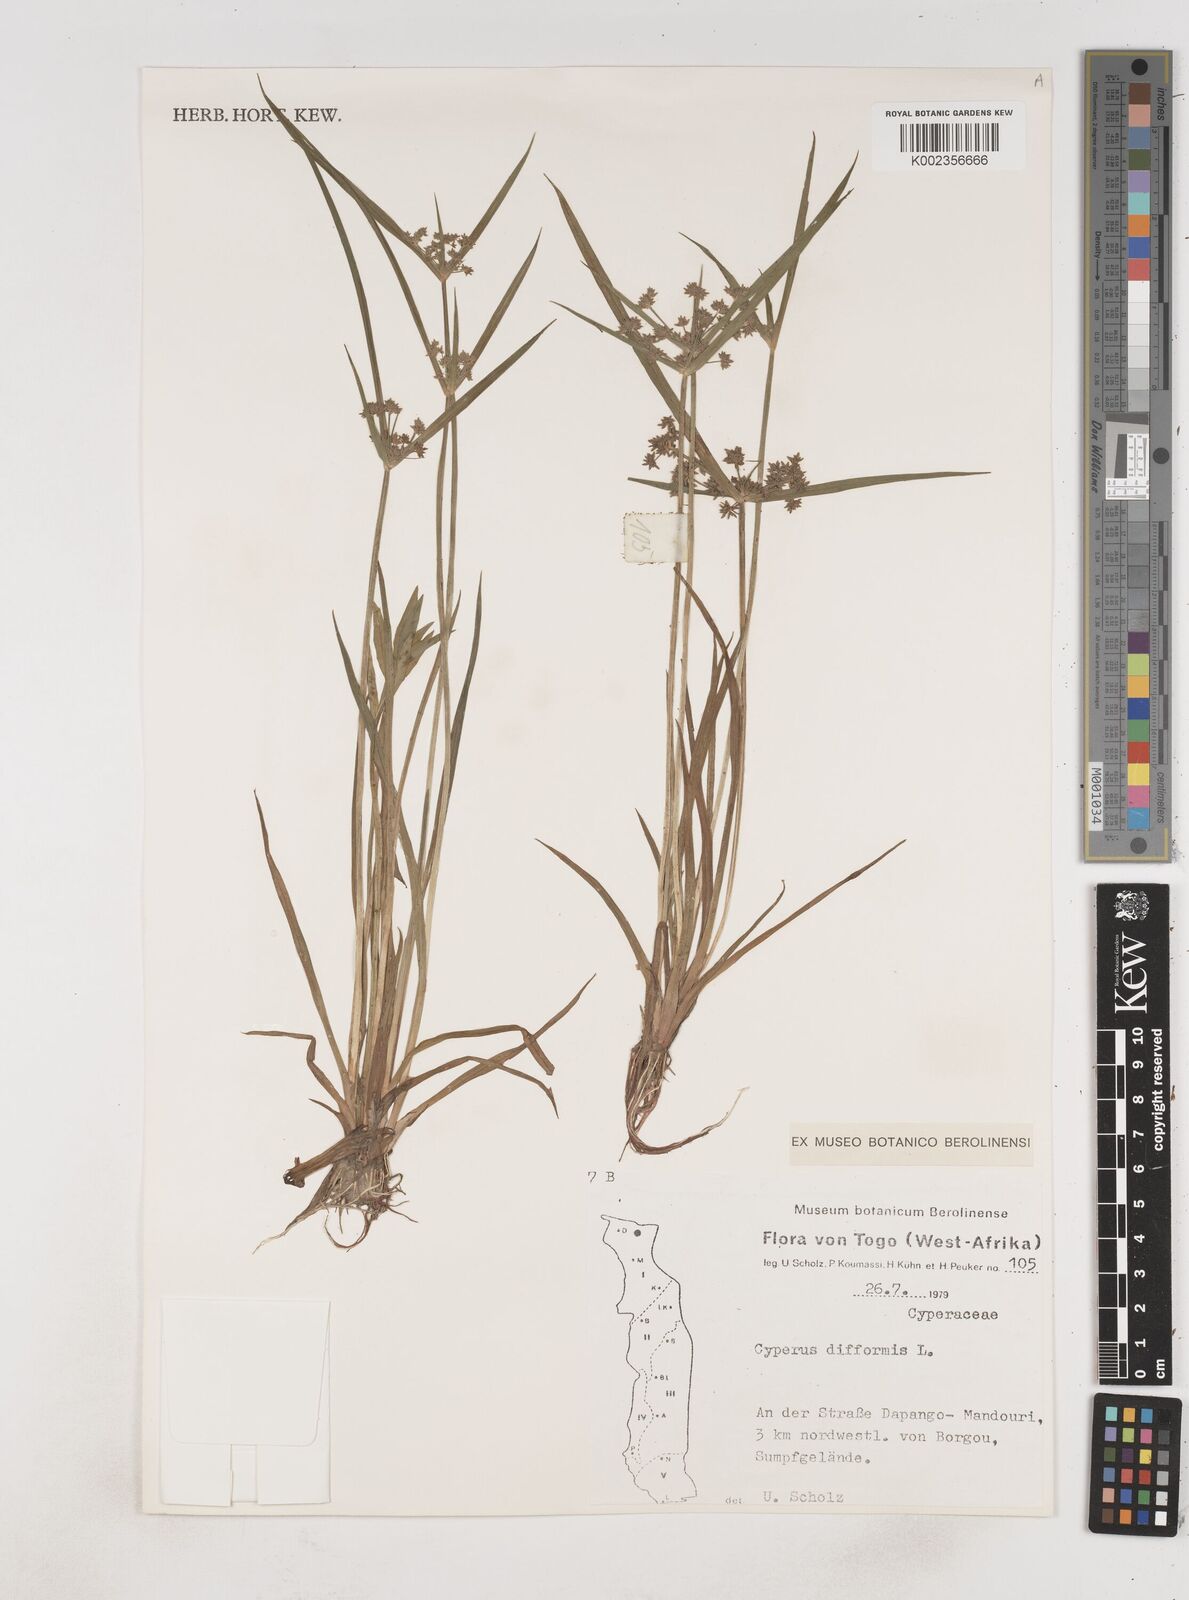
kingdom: Plantae
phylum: Tracheophyta
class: Liliopsida
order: Poales
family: Cyperaceae
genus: Cyperus
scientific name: Cyperus difformis
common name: Variable flatsedge
